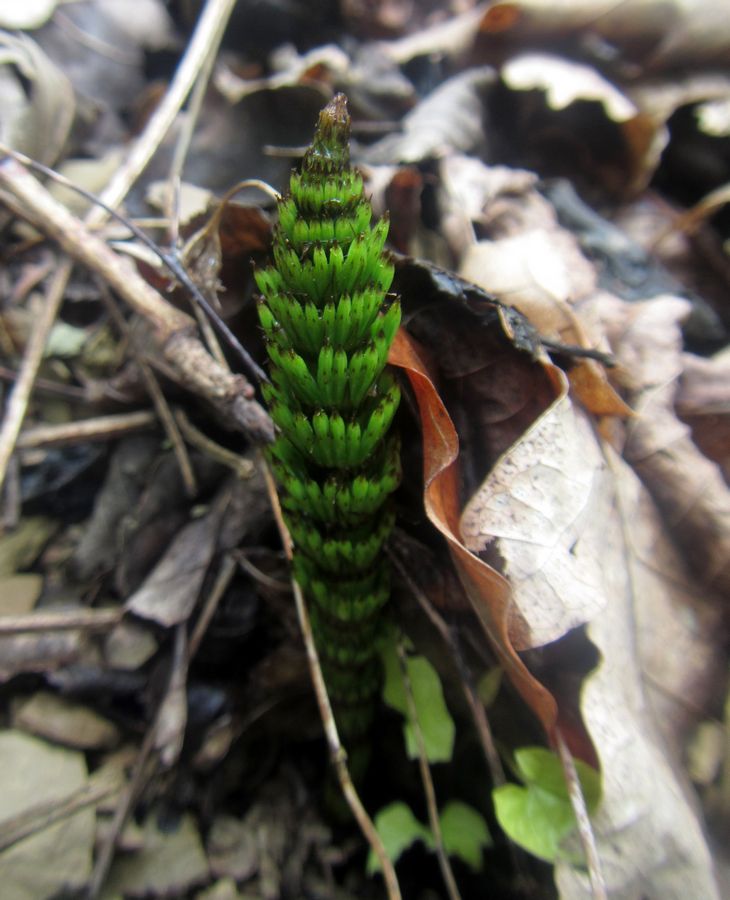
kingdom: Plantae
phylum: Tracheophyta
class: Polypodiopsida
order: Equisetales
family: Equisetaceae
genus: Equisetum
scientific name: Equisetum telmateia
